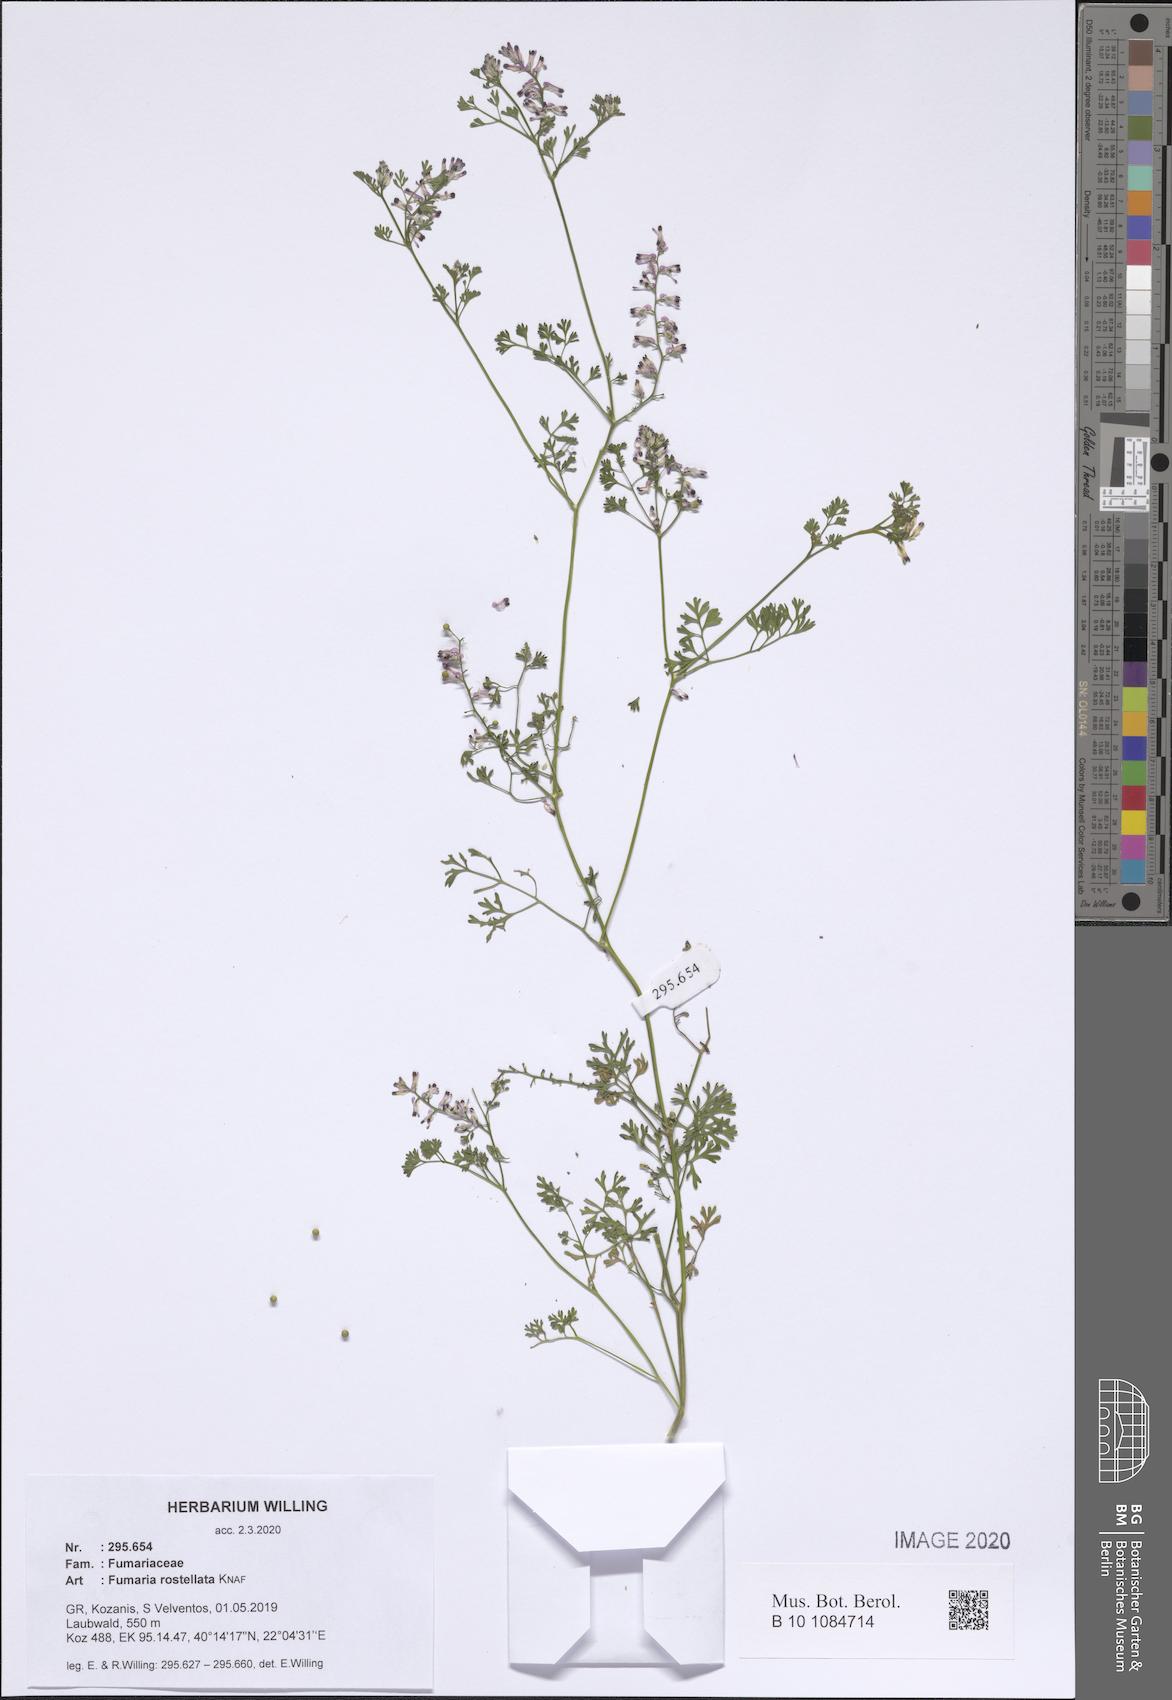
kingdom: Plantae
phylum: Tracheophyta
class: Magnoliopsida
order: Ranunculales
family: Papaveraceae
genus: Fumaria
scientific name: Fumaria rostellata
